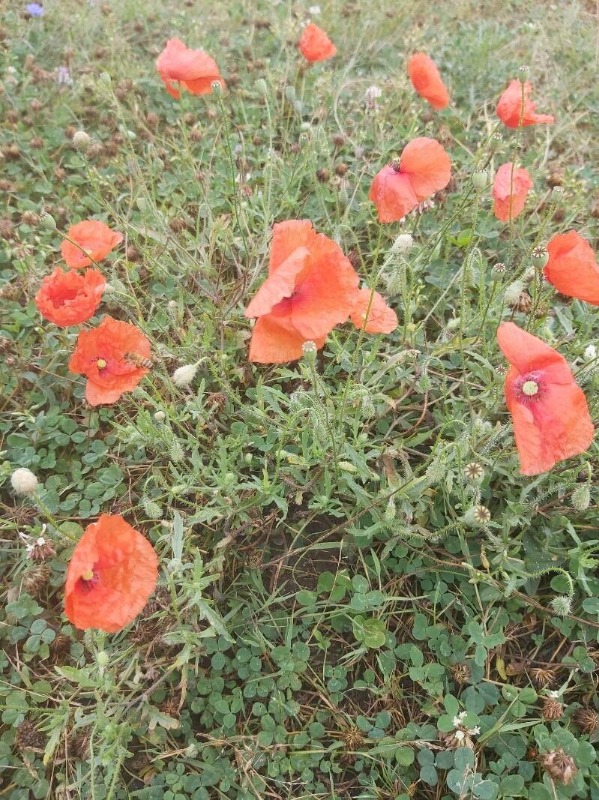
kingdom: Plantae
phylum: Tracheophyta
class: Magnoliopsida
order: Ranunculales
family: Papaveraceae
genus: Papaver
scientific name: Papaver rhoeas
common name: Korn-valmue
